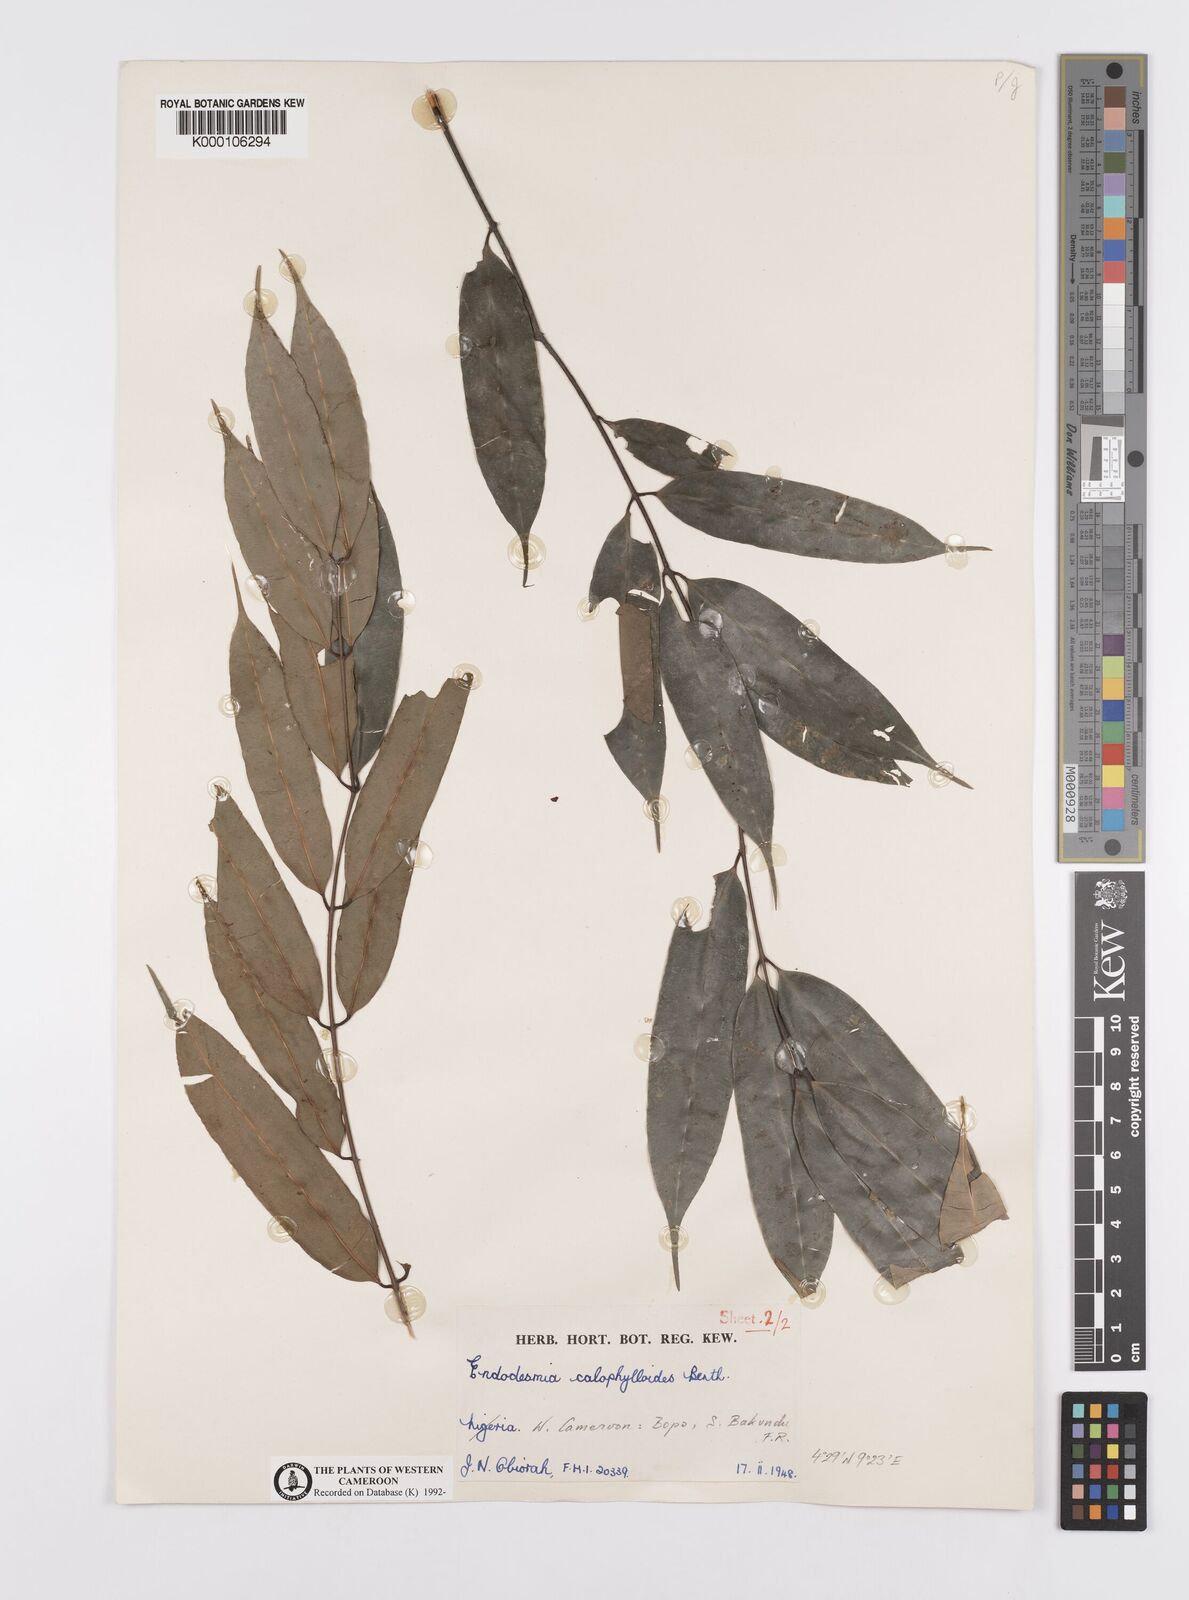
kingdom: Plantae
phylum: Tracheophyta
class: Magnoliopsida
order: Malpighiales
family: Calophyllaceae
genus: Endodesmia
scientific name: Endodesmia calophylloides
